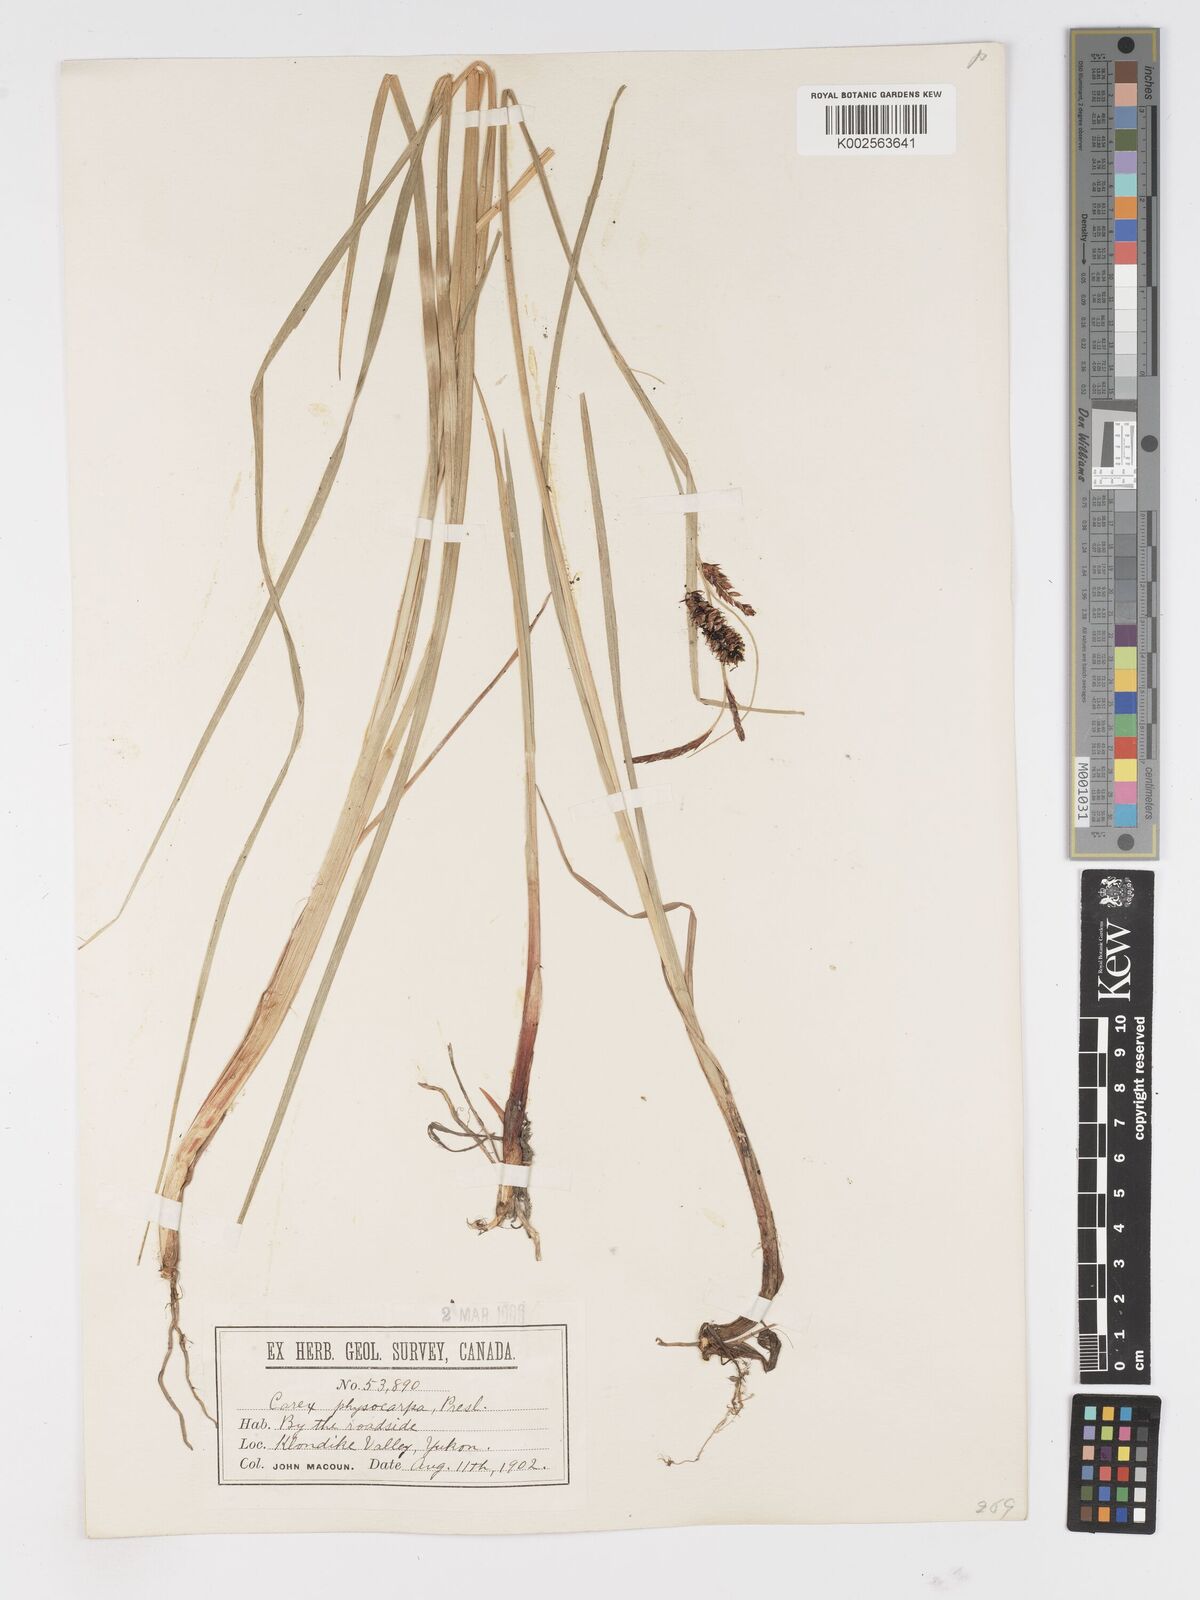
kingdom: Plantae
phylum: Tracheophyta
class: Liliopsida
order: Poales
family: Cyperaceae
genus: Carex
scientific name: Carex saxatilis
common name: Russet sedge
